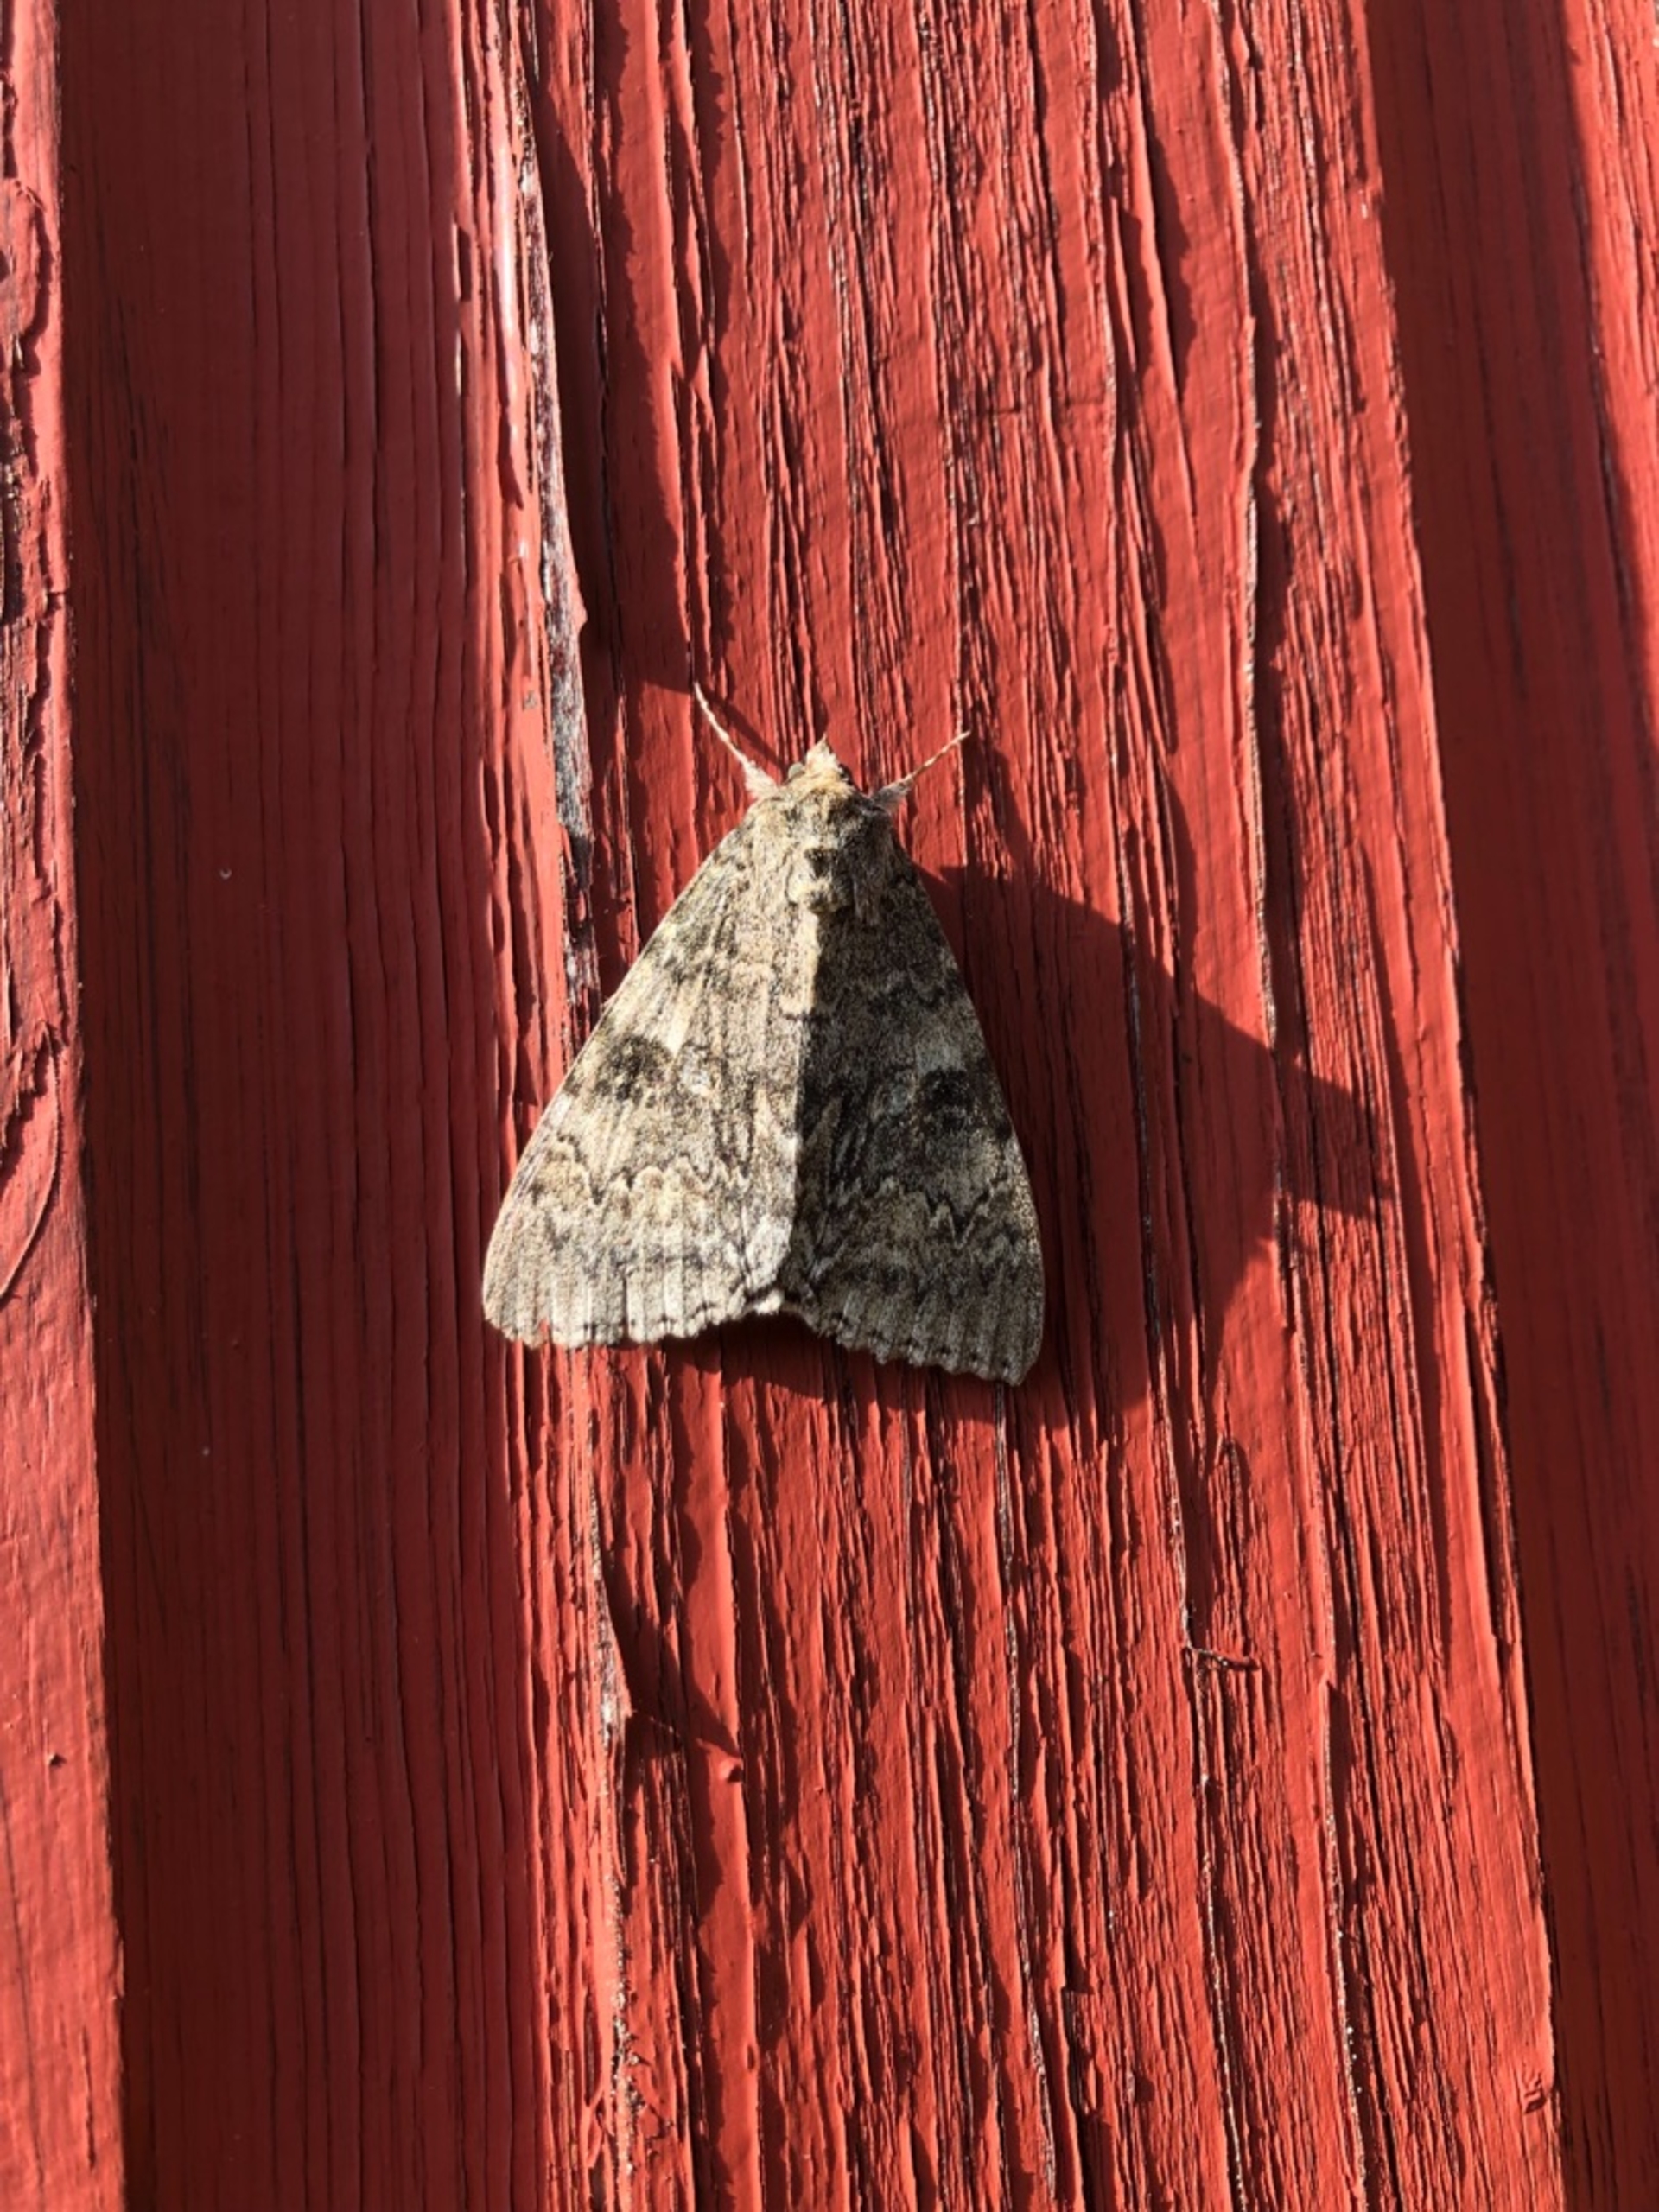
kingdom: Animalia
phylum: Arthropoda
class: Insecta
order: Lepidoptera
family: Erebidae
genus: Catocala
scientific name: Catocala nupta
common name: Rødt ordensbånd
